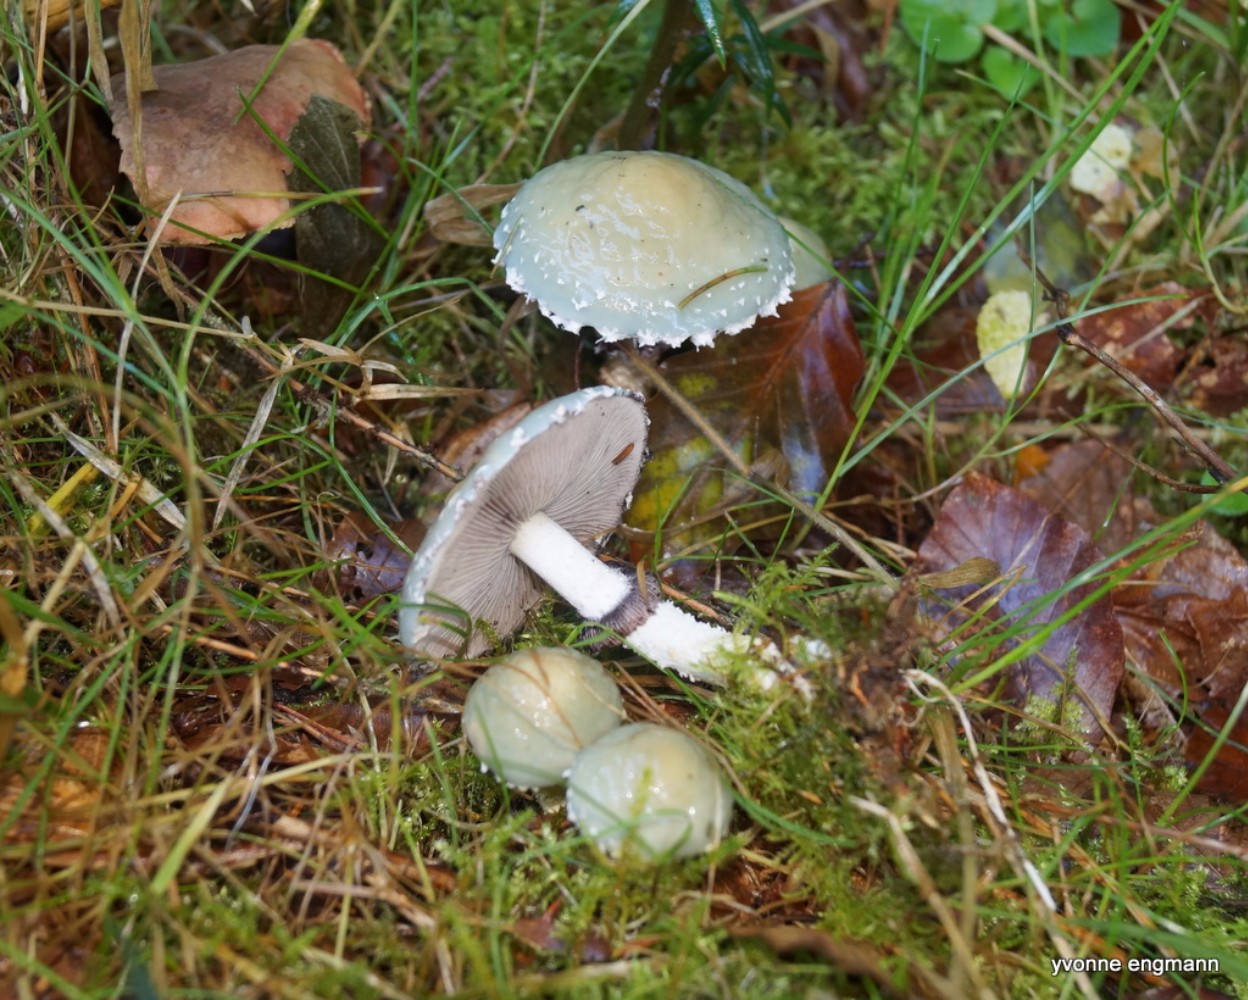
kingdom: Fungi
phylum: Basidiomycota
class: Agaricomycetes
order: Agaricales
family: Strophariaceae
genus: Stropharia
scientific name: Stropharia aeruginosa
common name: spanskgrøn bredblad
